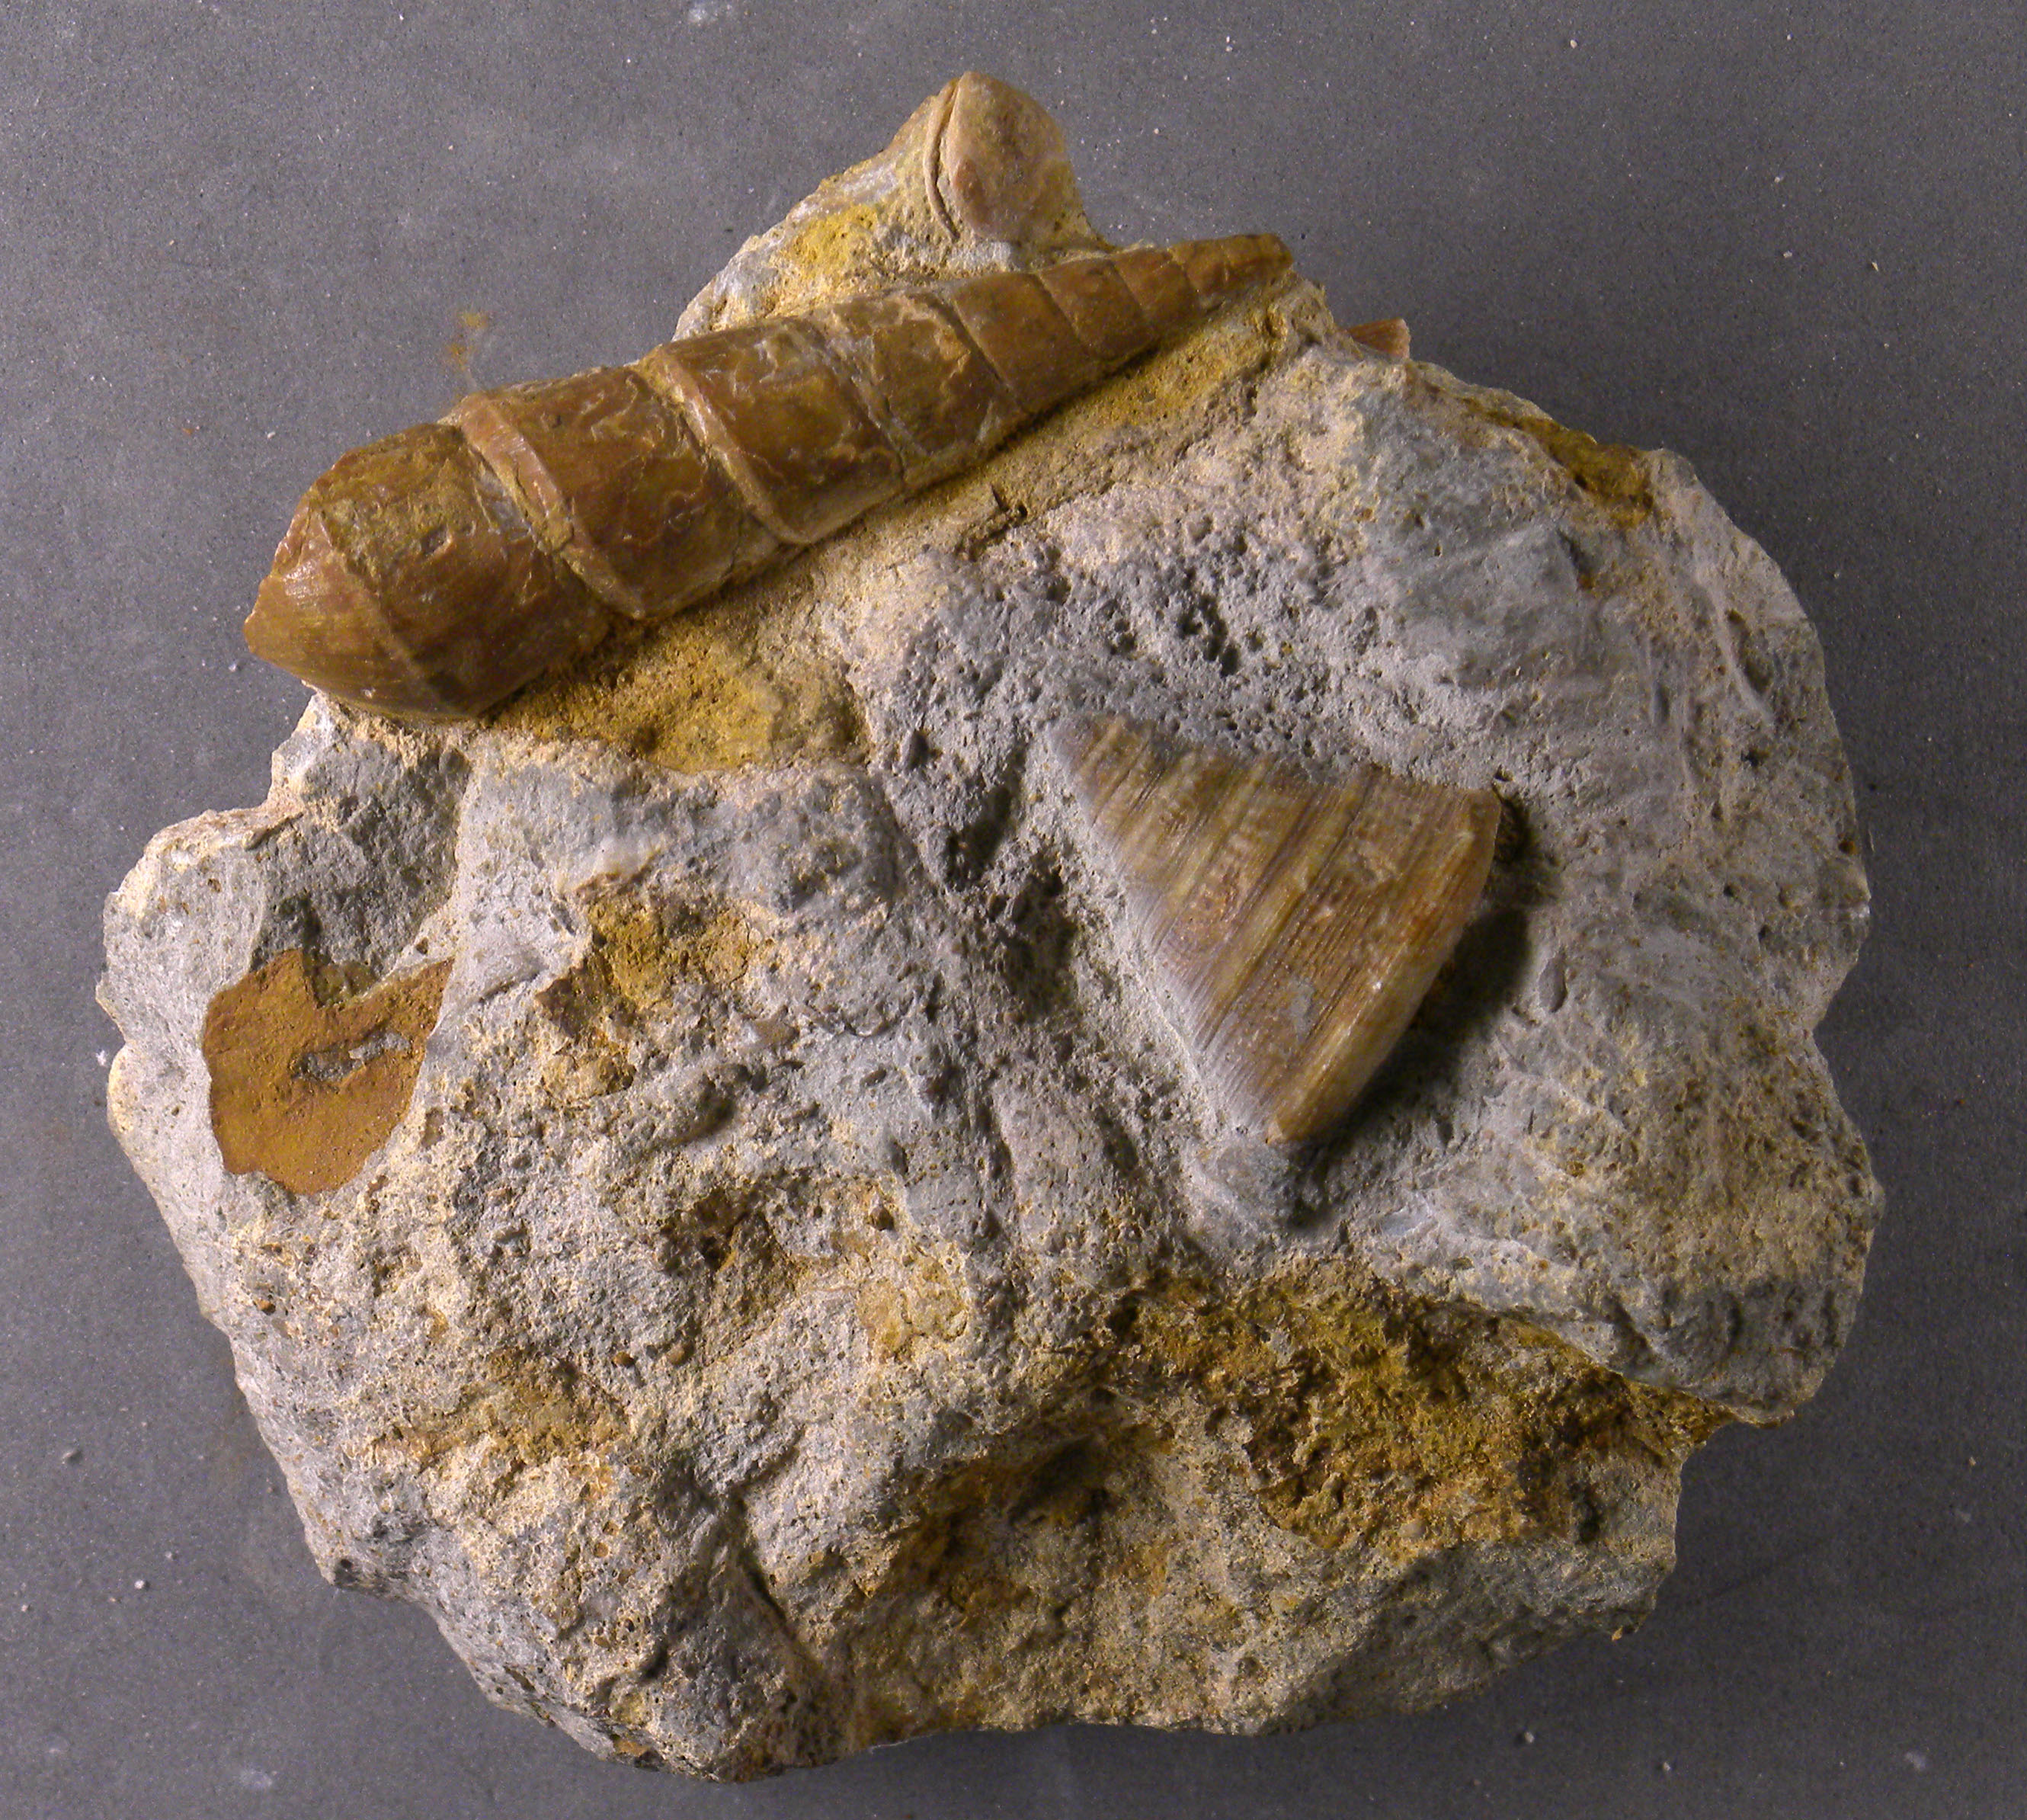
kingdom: Animalia
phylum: Mollusca
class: Gastropoda
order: Pleurotomariida
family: Pleurotomariidae
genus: Pyrgotrochus
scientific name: Pyrgotrochus elongatus
